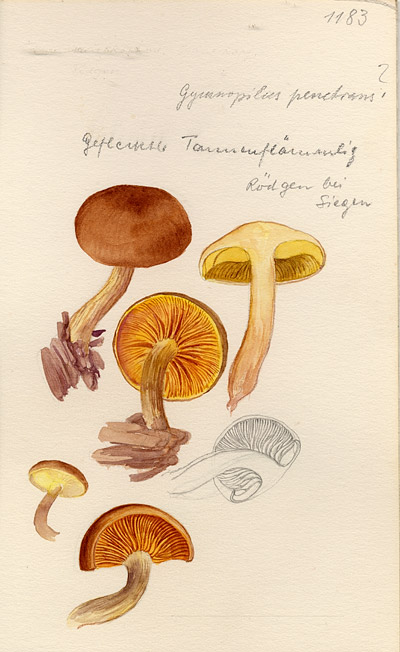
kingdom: Fungi
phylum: Basidiomycota
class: Agaricomycetes
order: Agaricales
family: Hymenogastraceae
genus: Gymnopilus
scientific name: Gymnopilus penetrans
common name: Common rustgill
